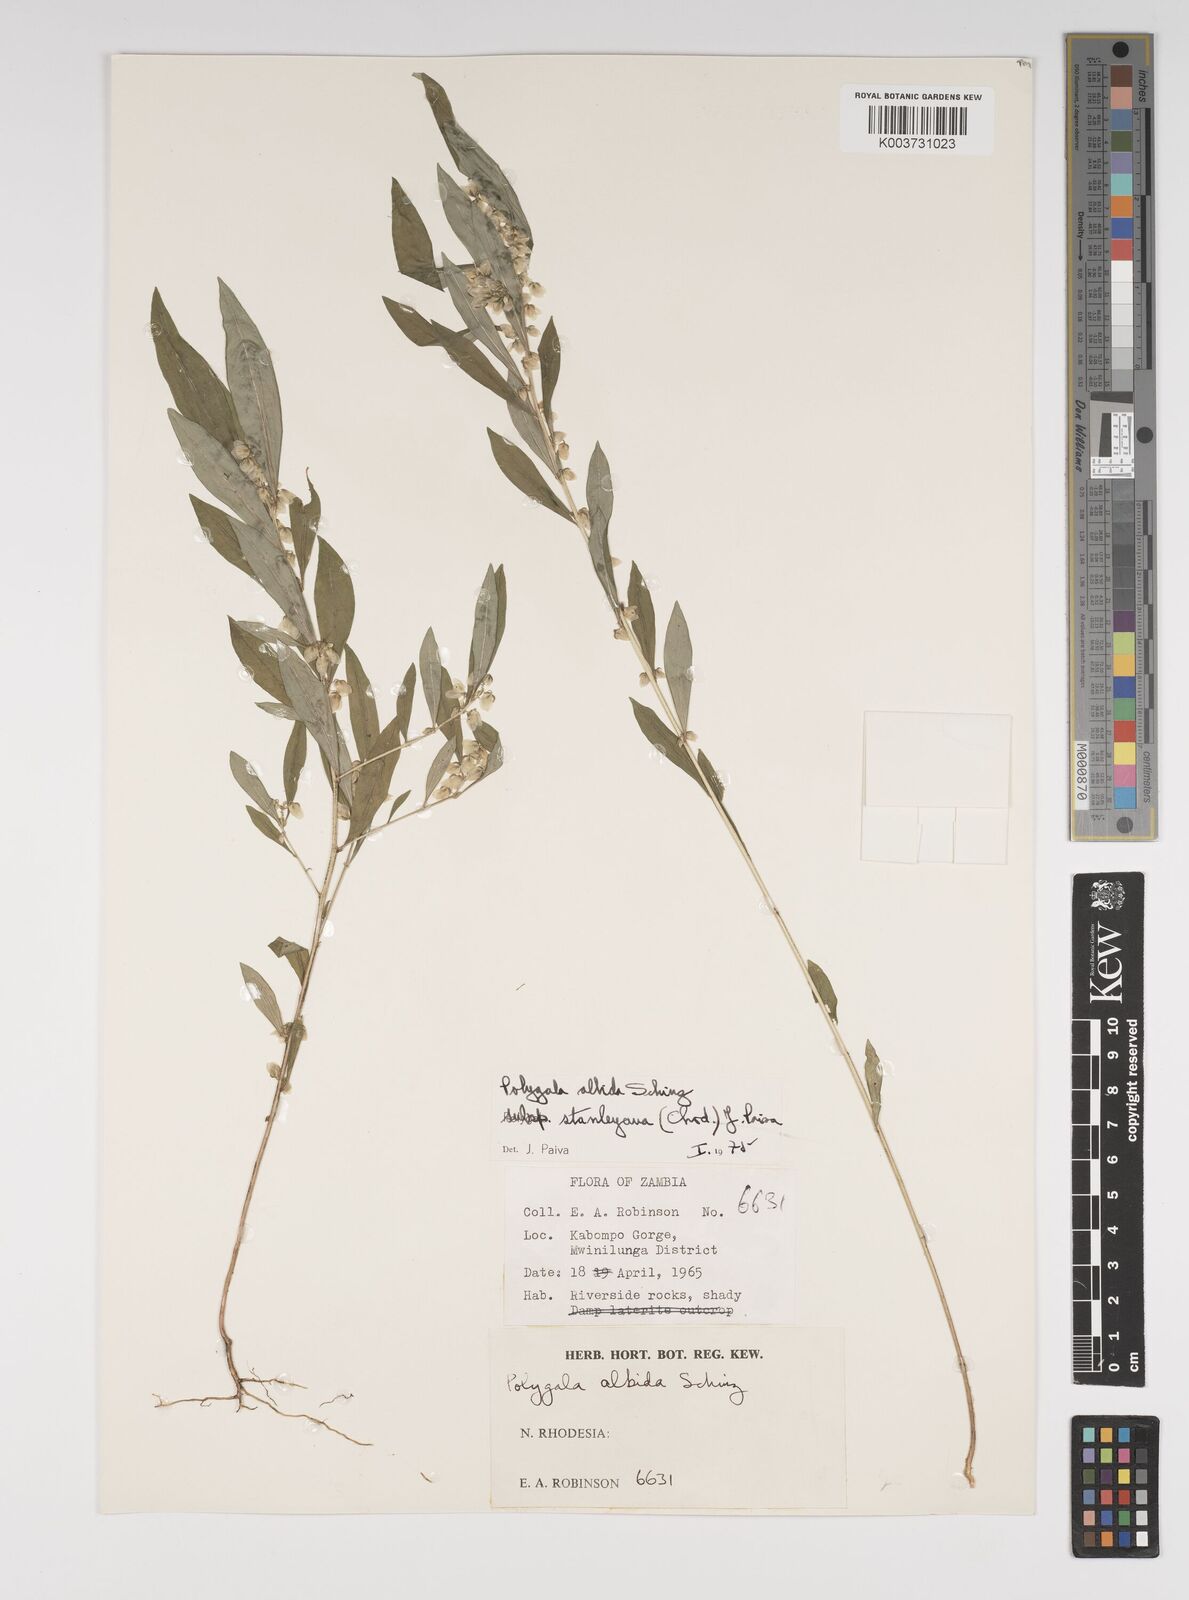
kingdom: Plantae
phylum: Tracheophyta
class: Magnoliopsida
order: Fabales
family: Polygalaceae
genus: Polygala
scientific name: Polygala albida
